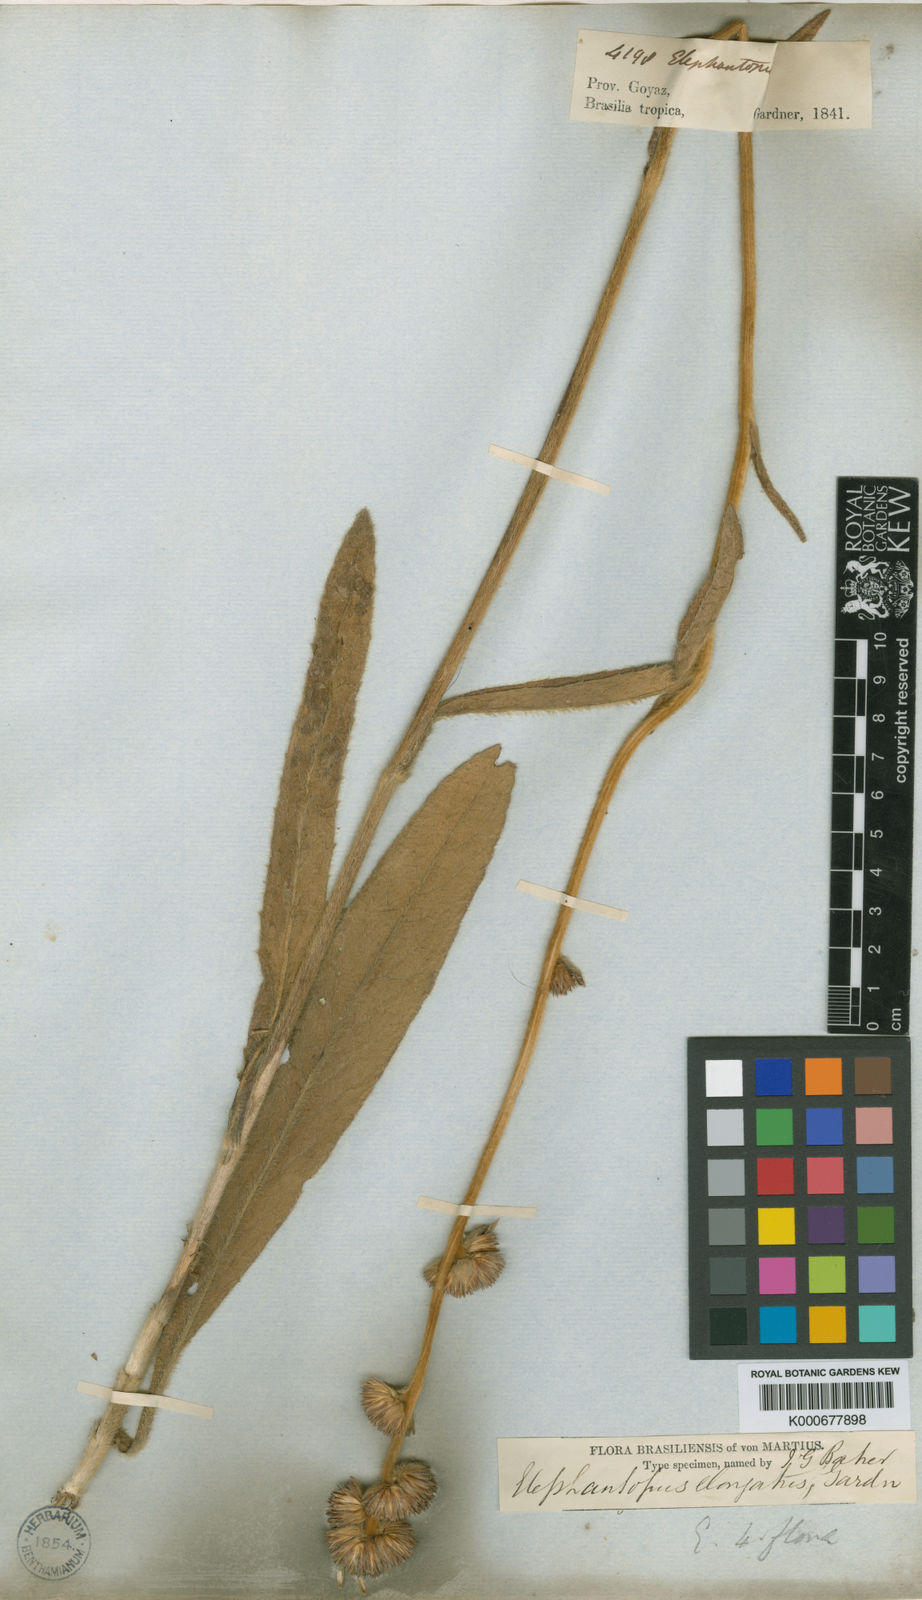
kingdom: Plantae
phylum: Tracheophyta
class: Magnoliopsida
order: Asterales
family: Asteraceae
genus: Elephantopus
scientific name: Elephantopus elongatus
